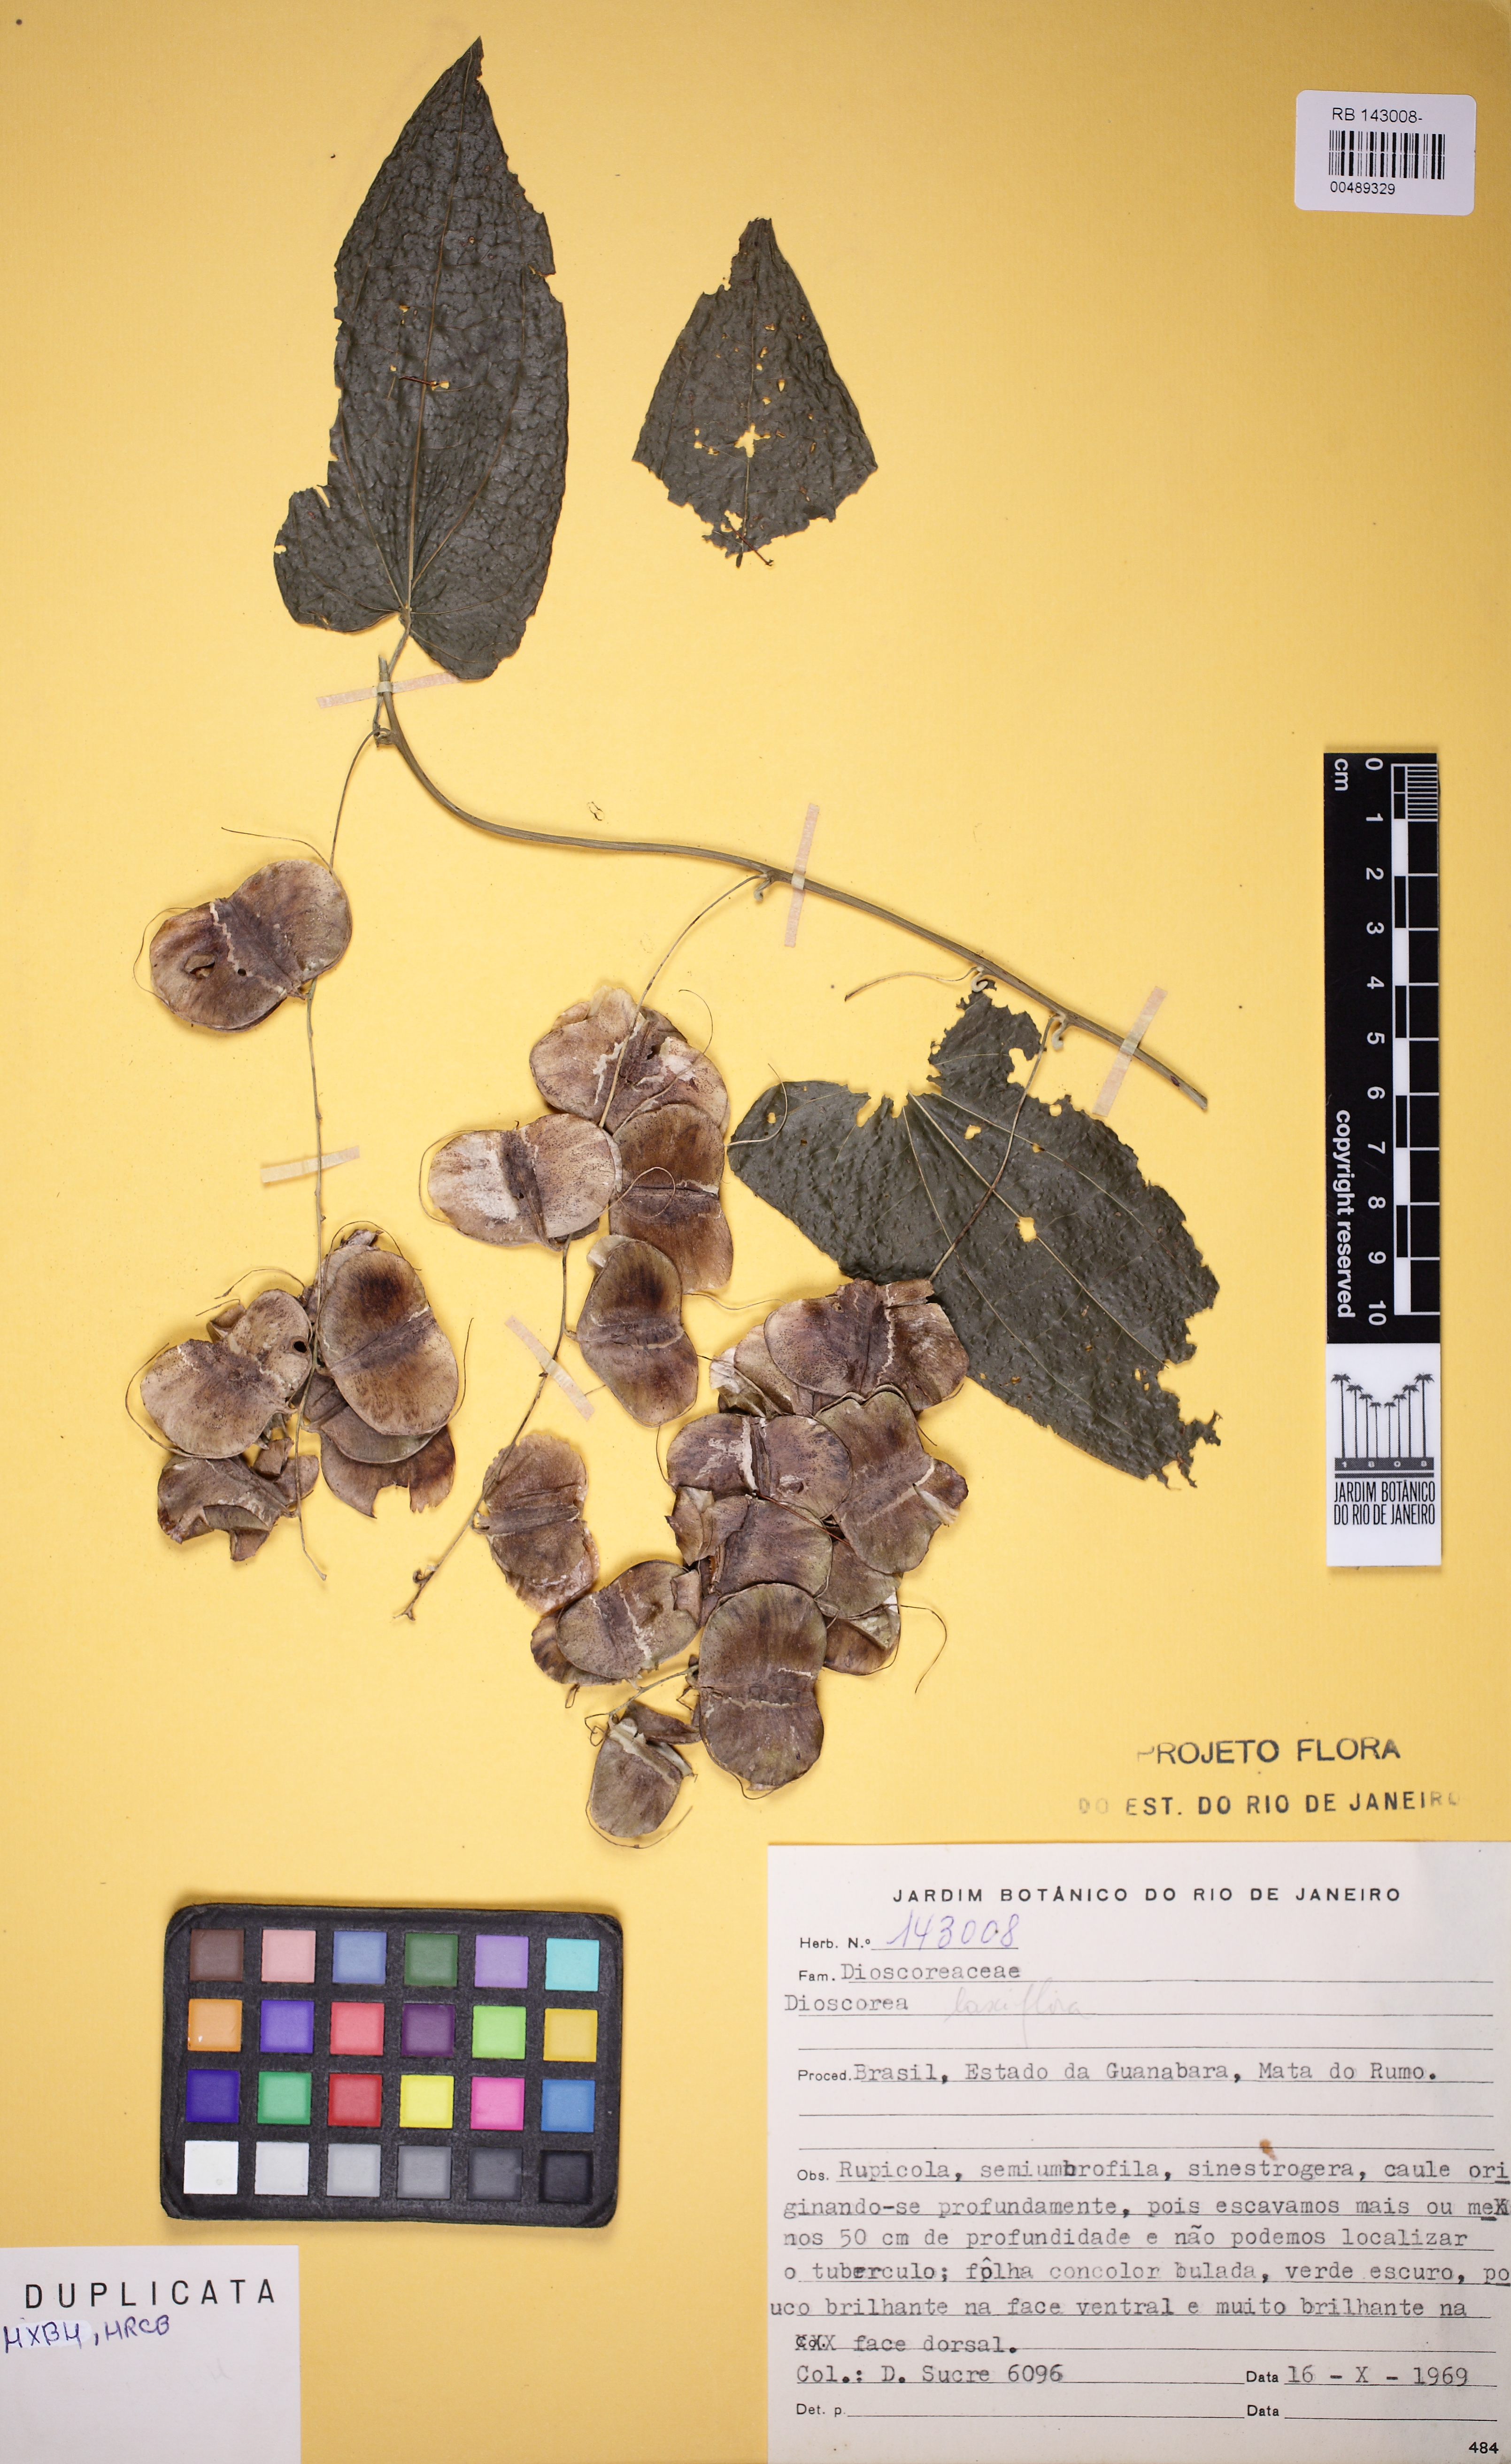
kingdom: Plantae
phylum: Tracheophyta
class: Liliopsida
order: Dioscoreales
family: Dioscoreaceae
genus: Dioscorea
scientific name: Dioscorea laxiflora
